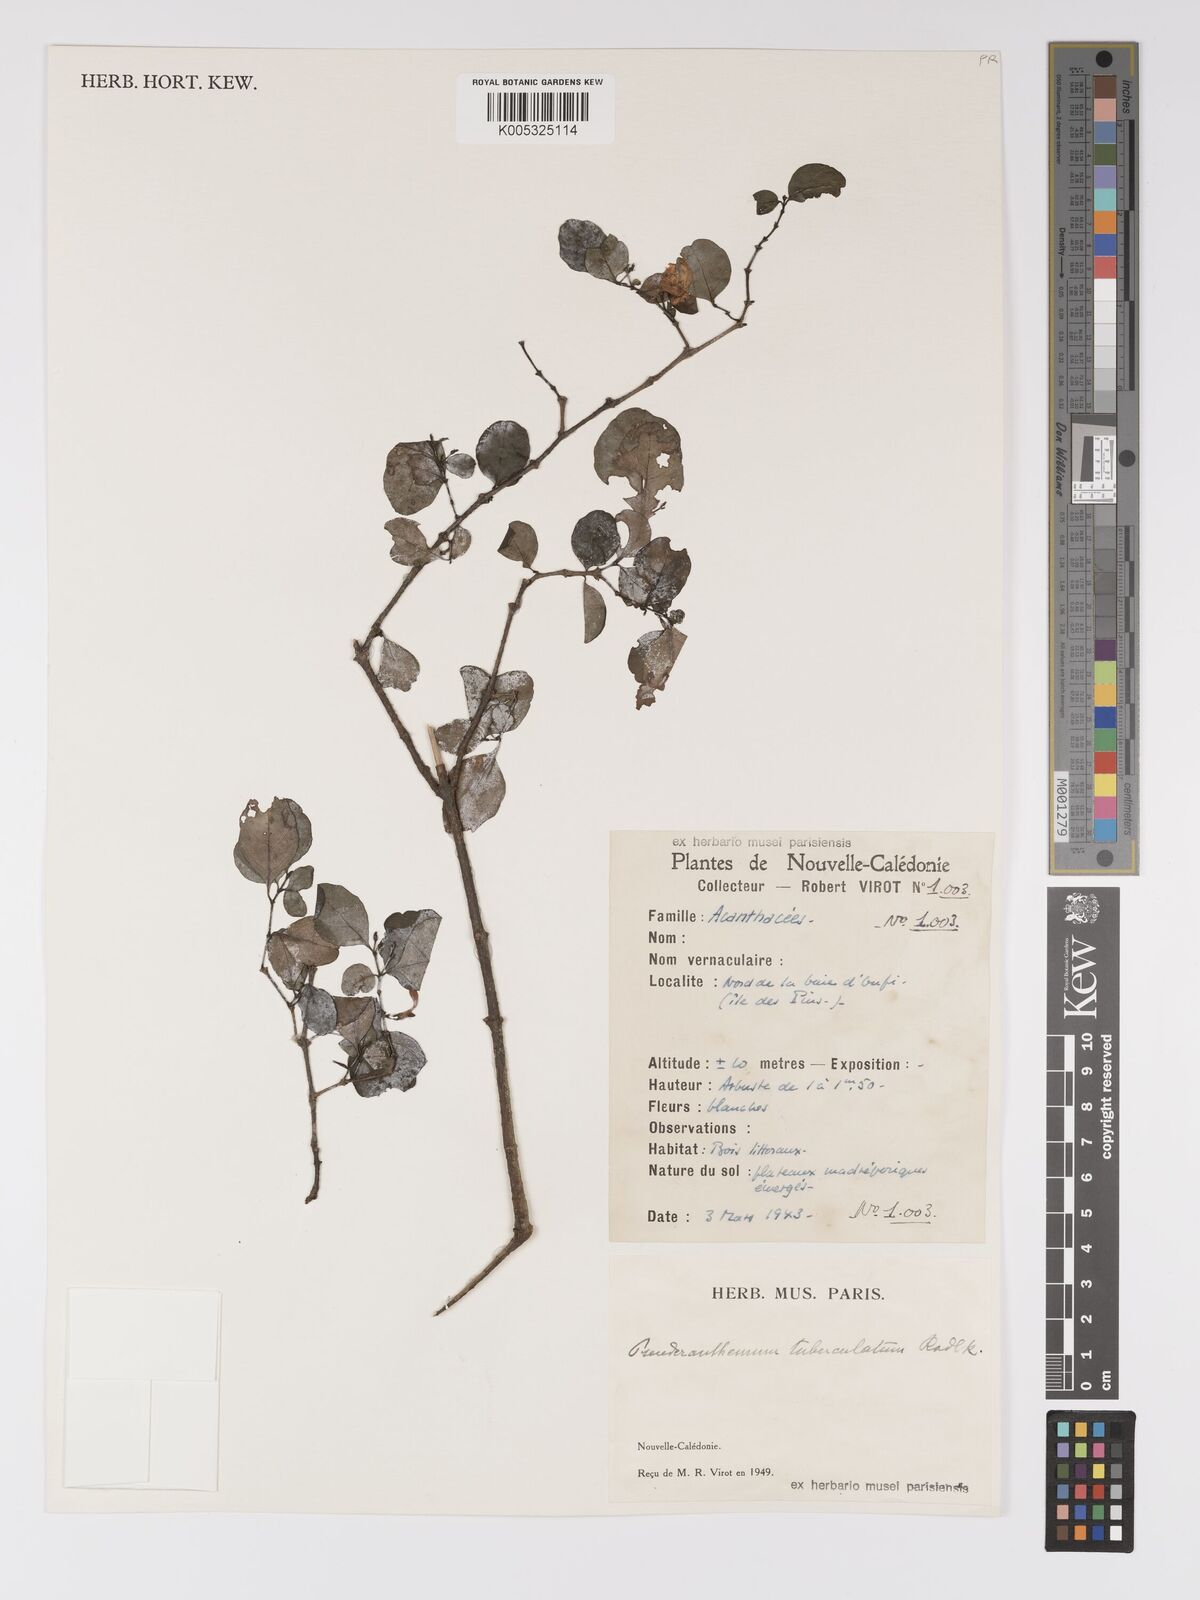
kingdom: Plantae
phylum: Tracheophyta
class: Magnoliopsida
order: Lamiales
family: Acanthaceae
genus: Pseuderanthemum
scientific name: Pseuderanthemum repandum
